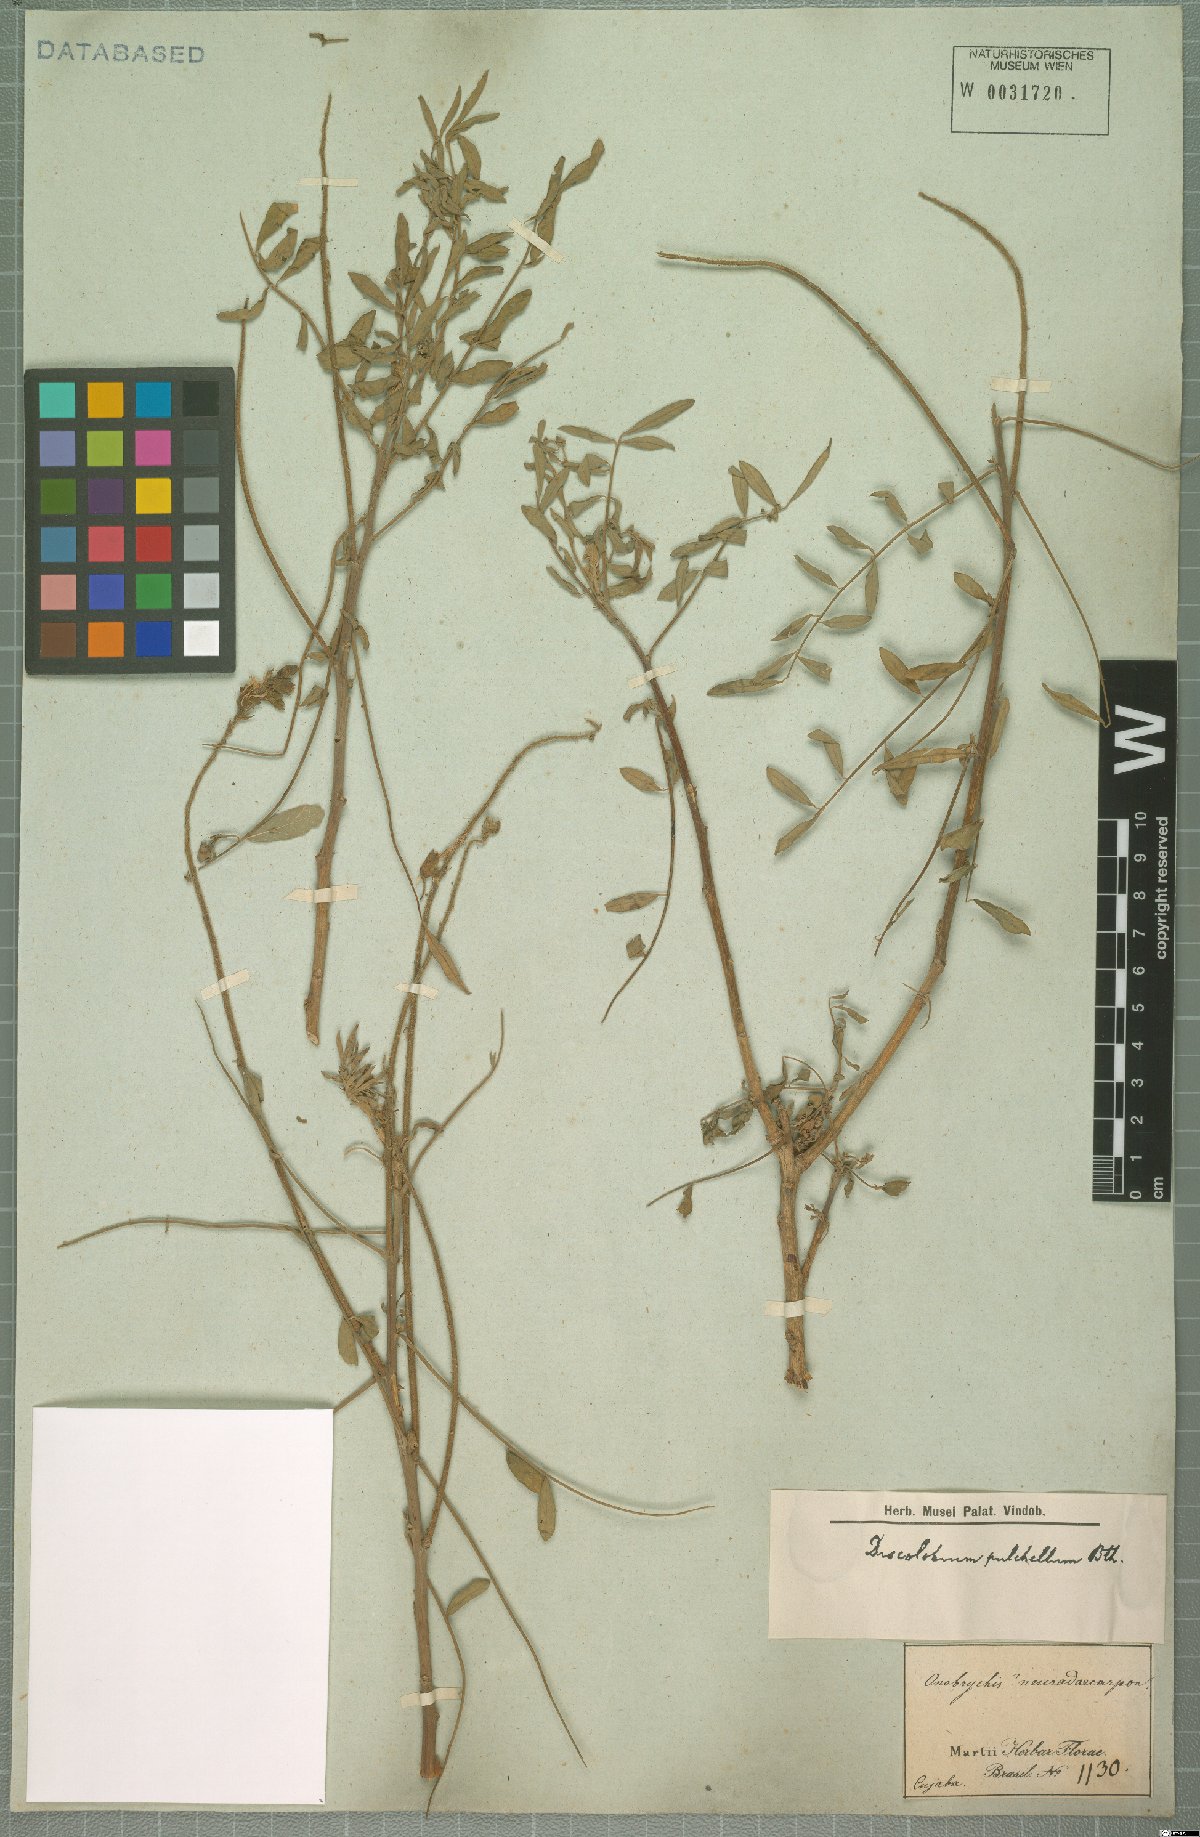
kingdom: Plantae
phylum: Tracheophyta
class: Magnoliopsida
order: Fabales
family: Fabaceae
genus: Discolobium
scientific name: Discolobium pulchellum
